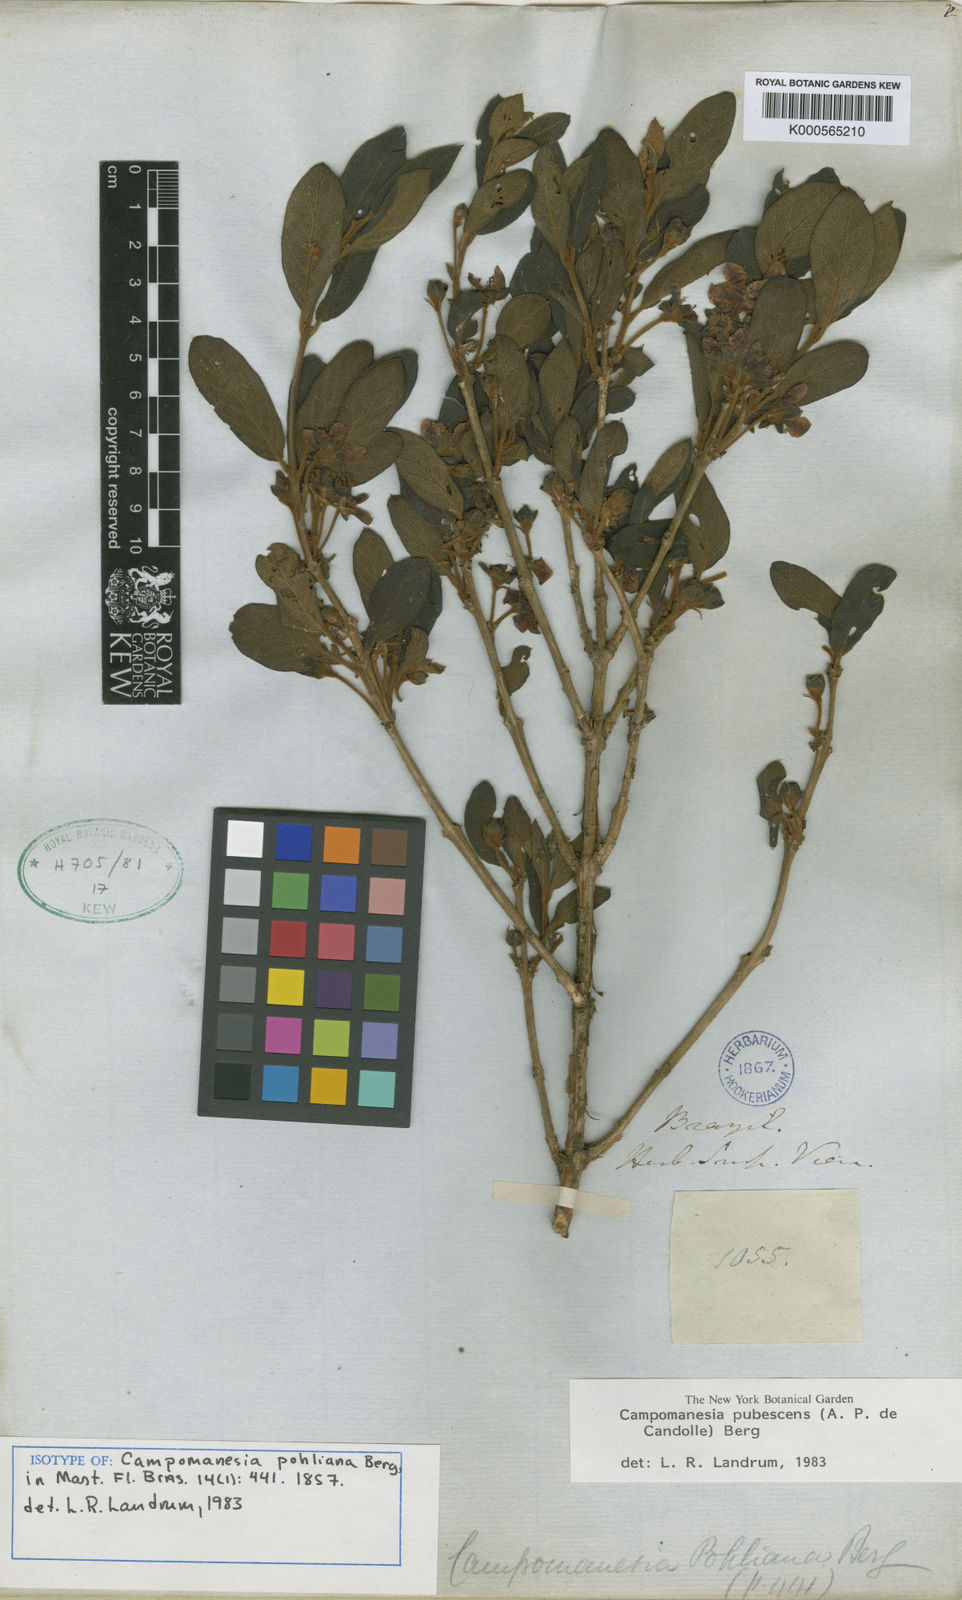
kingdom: Plantae
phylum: Tracheophyta
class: Magnoliopsida
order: Myrtales
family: Myrtaceae
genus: Campomanesia
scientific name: Campomanesia pubescens
